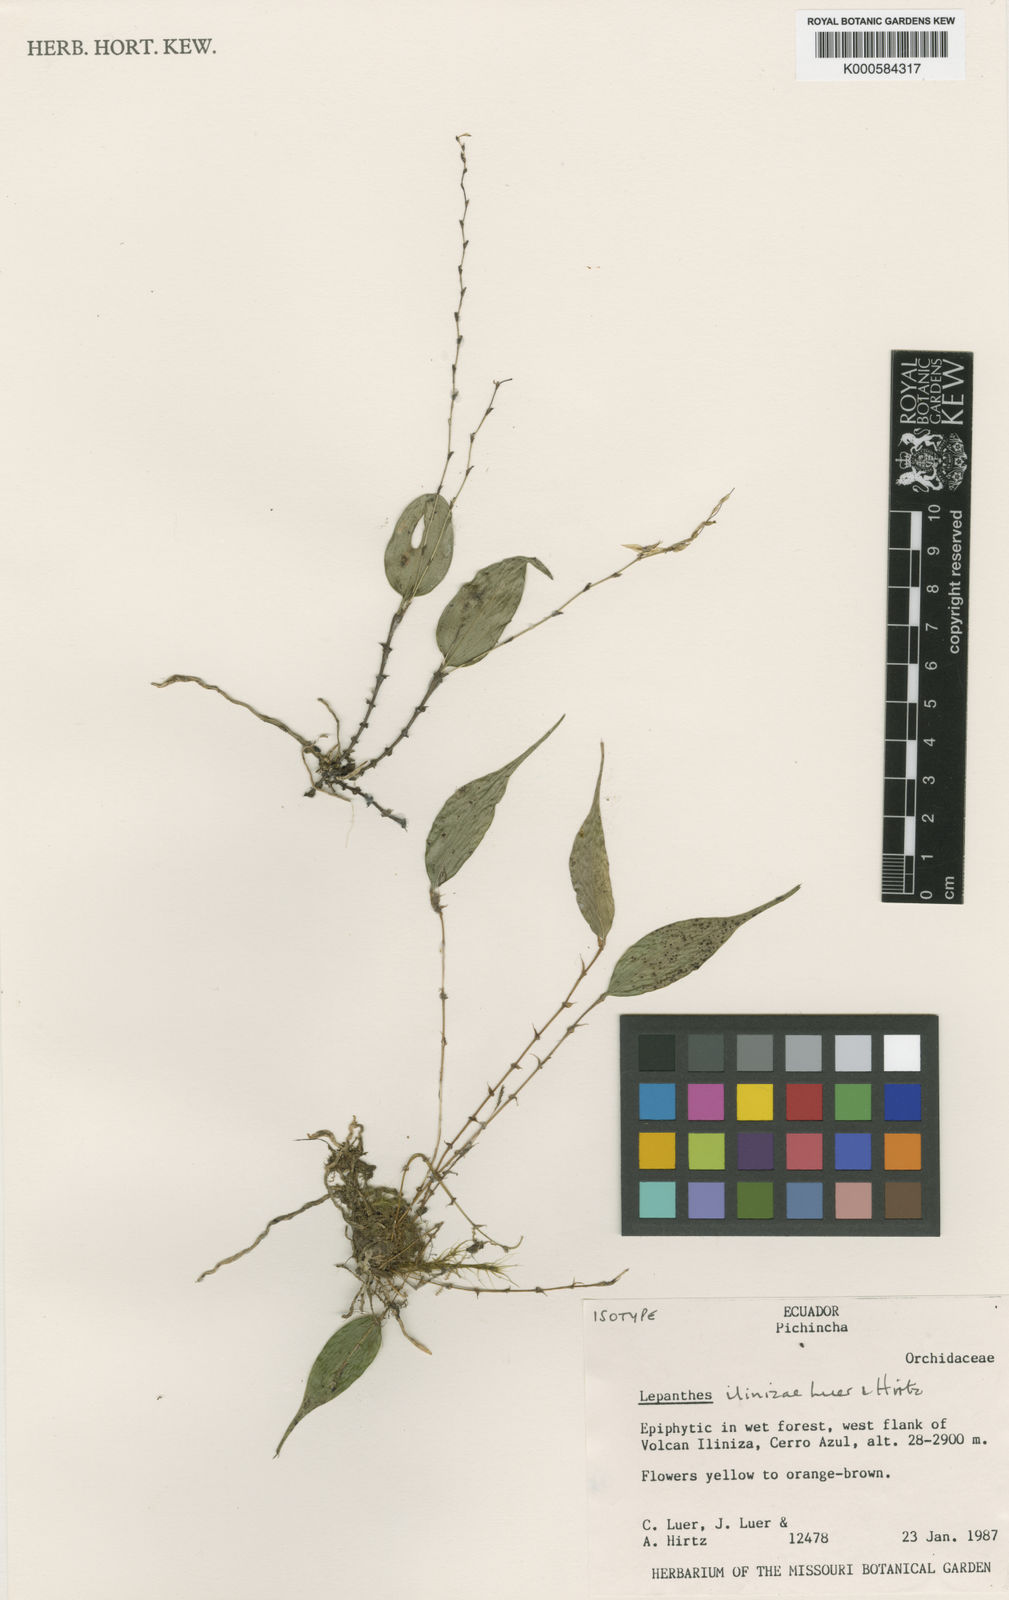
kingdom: Plantae
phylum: Tracheophyta
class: Liliopsida
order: Asparagales
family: Orchidaceae
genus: Lepanthes
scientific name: Lepanthes illinizae
